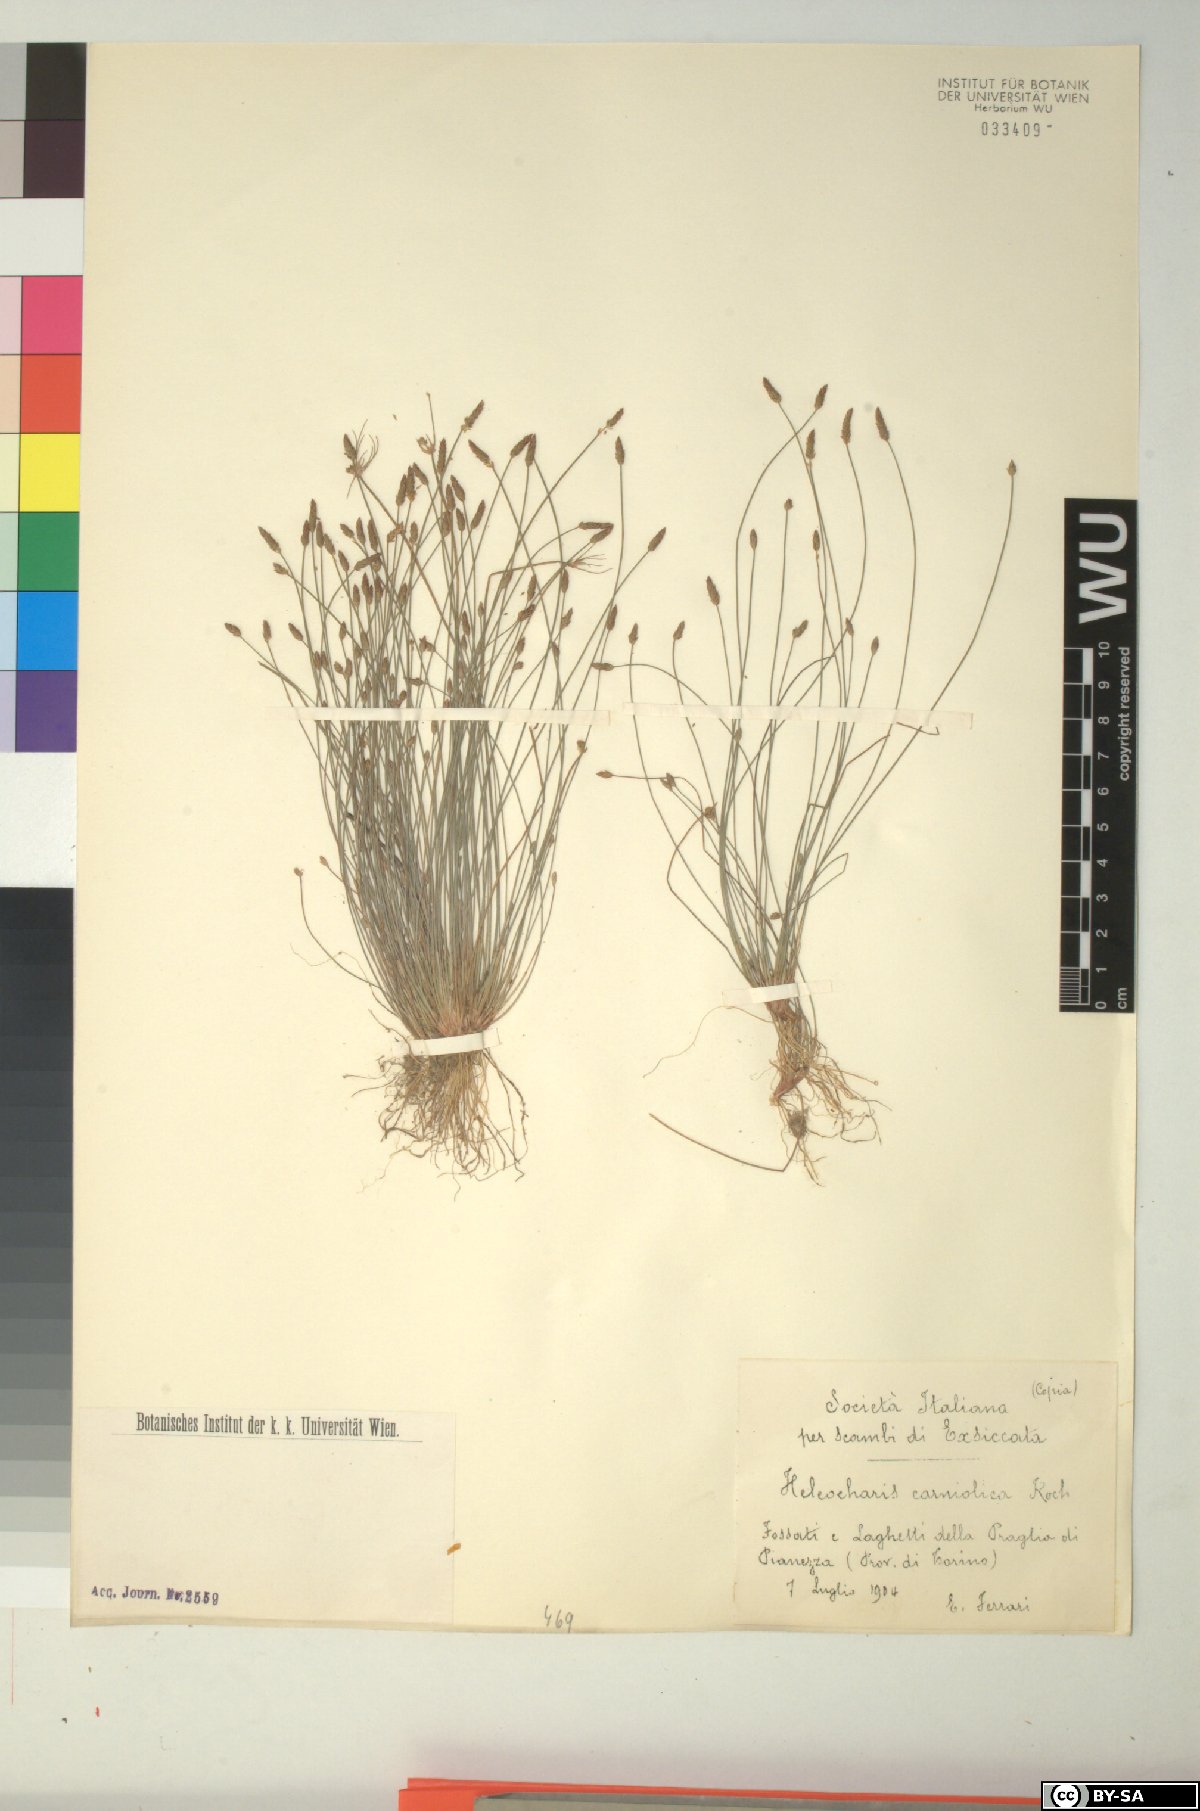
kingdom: Plantae
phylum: Tracheophyta
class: Liliopsida
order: Poales
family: Cyperaceae
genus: Eleocharis
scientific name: Eleocharis carniolica
